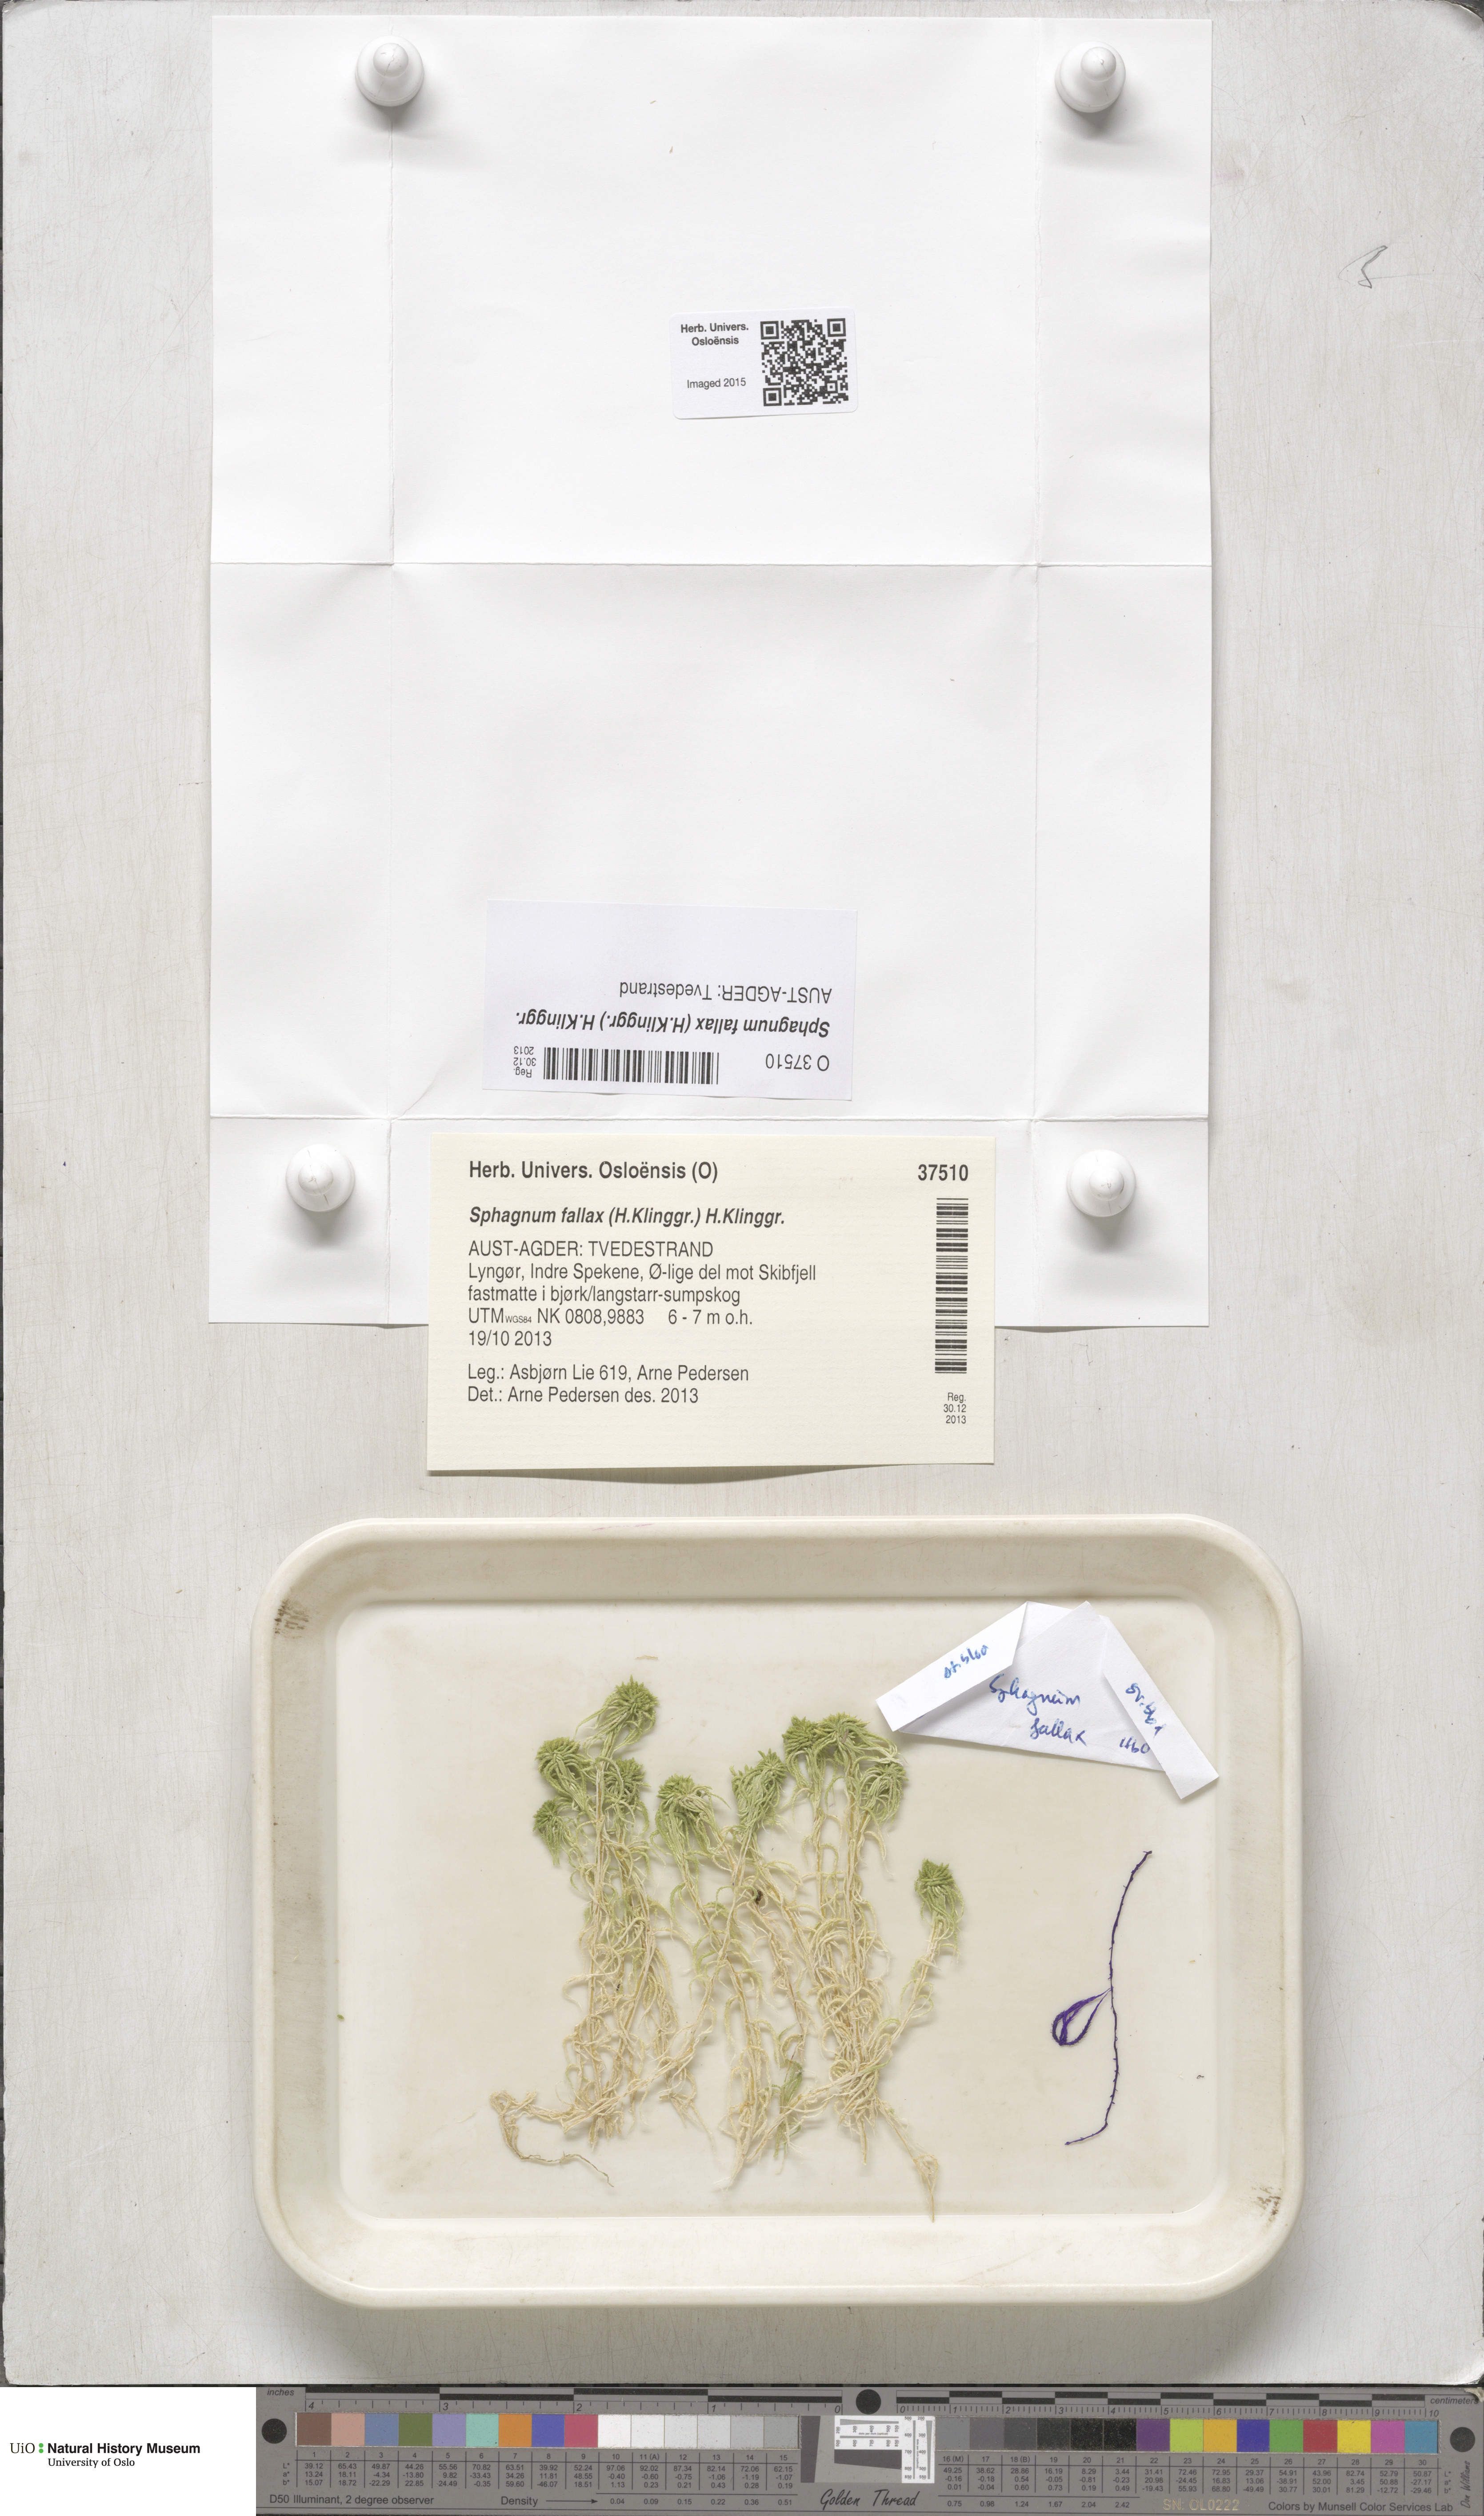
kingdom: Plantae
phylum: Bryophyta
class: Sphagnopsida
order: Sphagnales
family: Sphagnaceae
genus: Sphagnum
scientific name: Sphagnum fallax
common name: Flat-top peat moss
